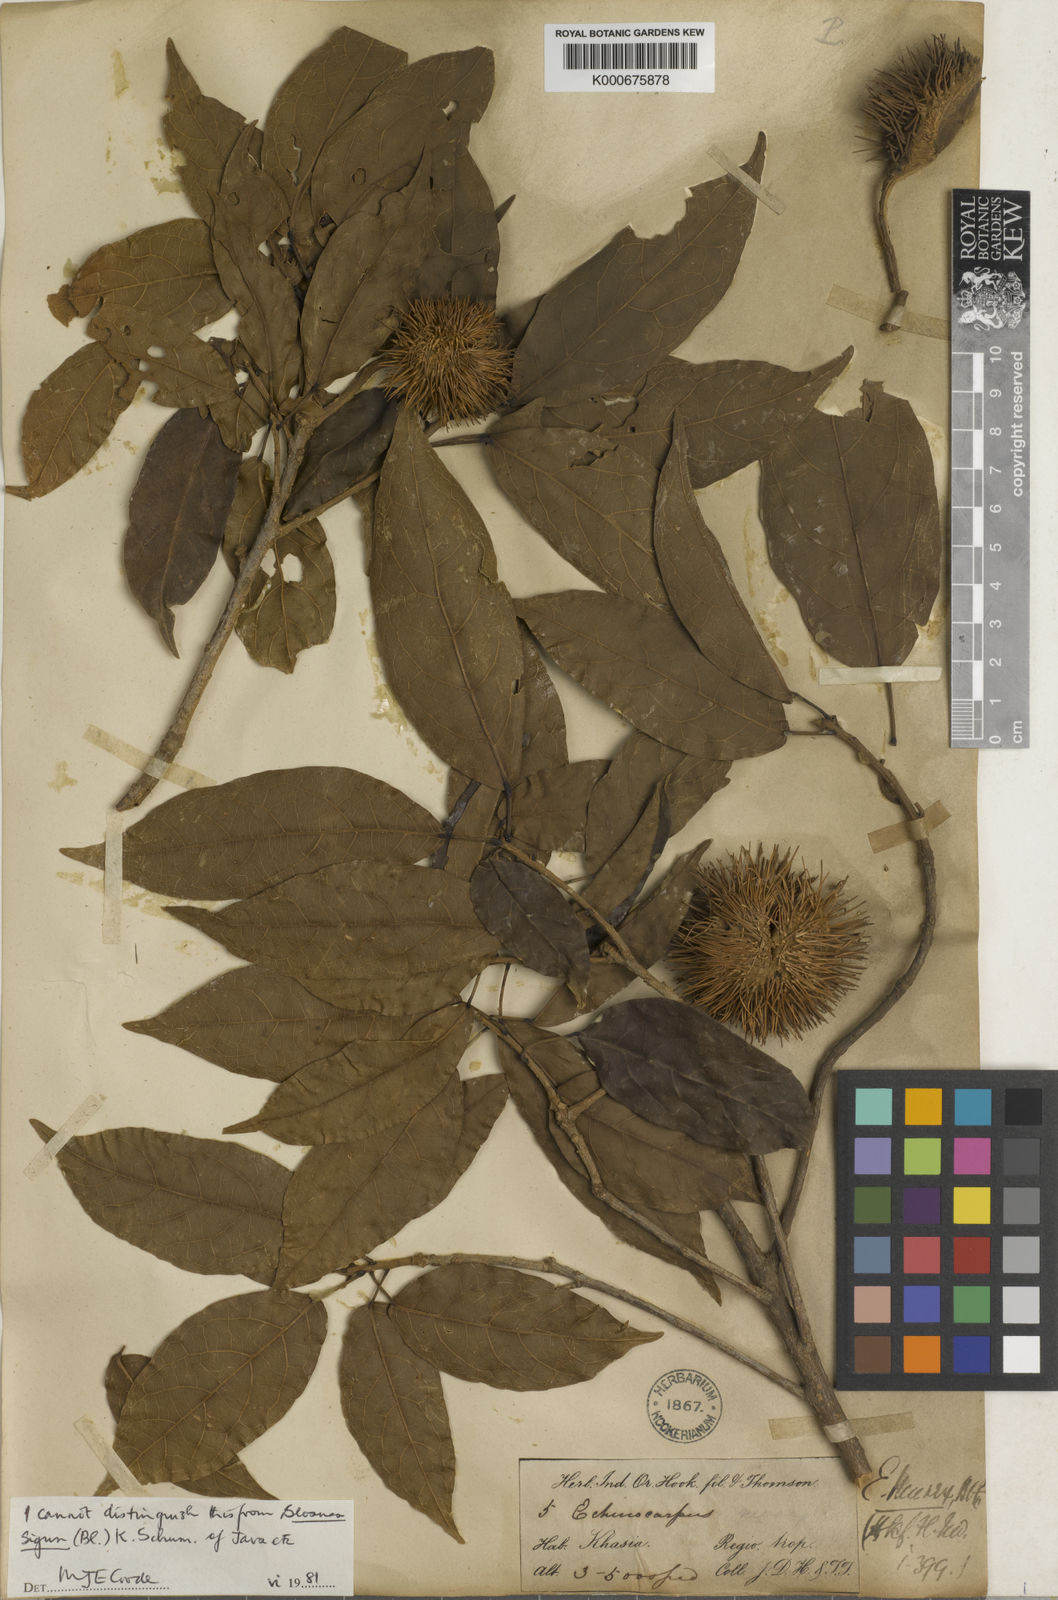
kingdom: Plantae
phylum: Tracheophyta
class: Magnoliopsida
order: Oxalidales
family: Elaeocarpaceae
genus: Sloanea
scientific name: Sloanea
